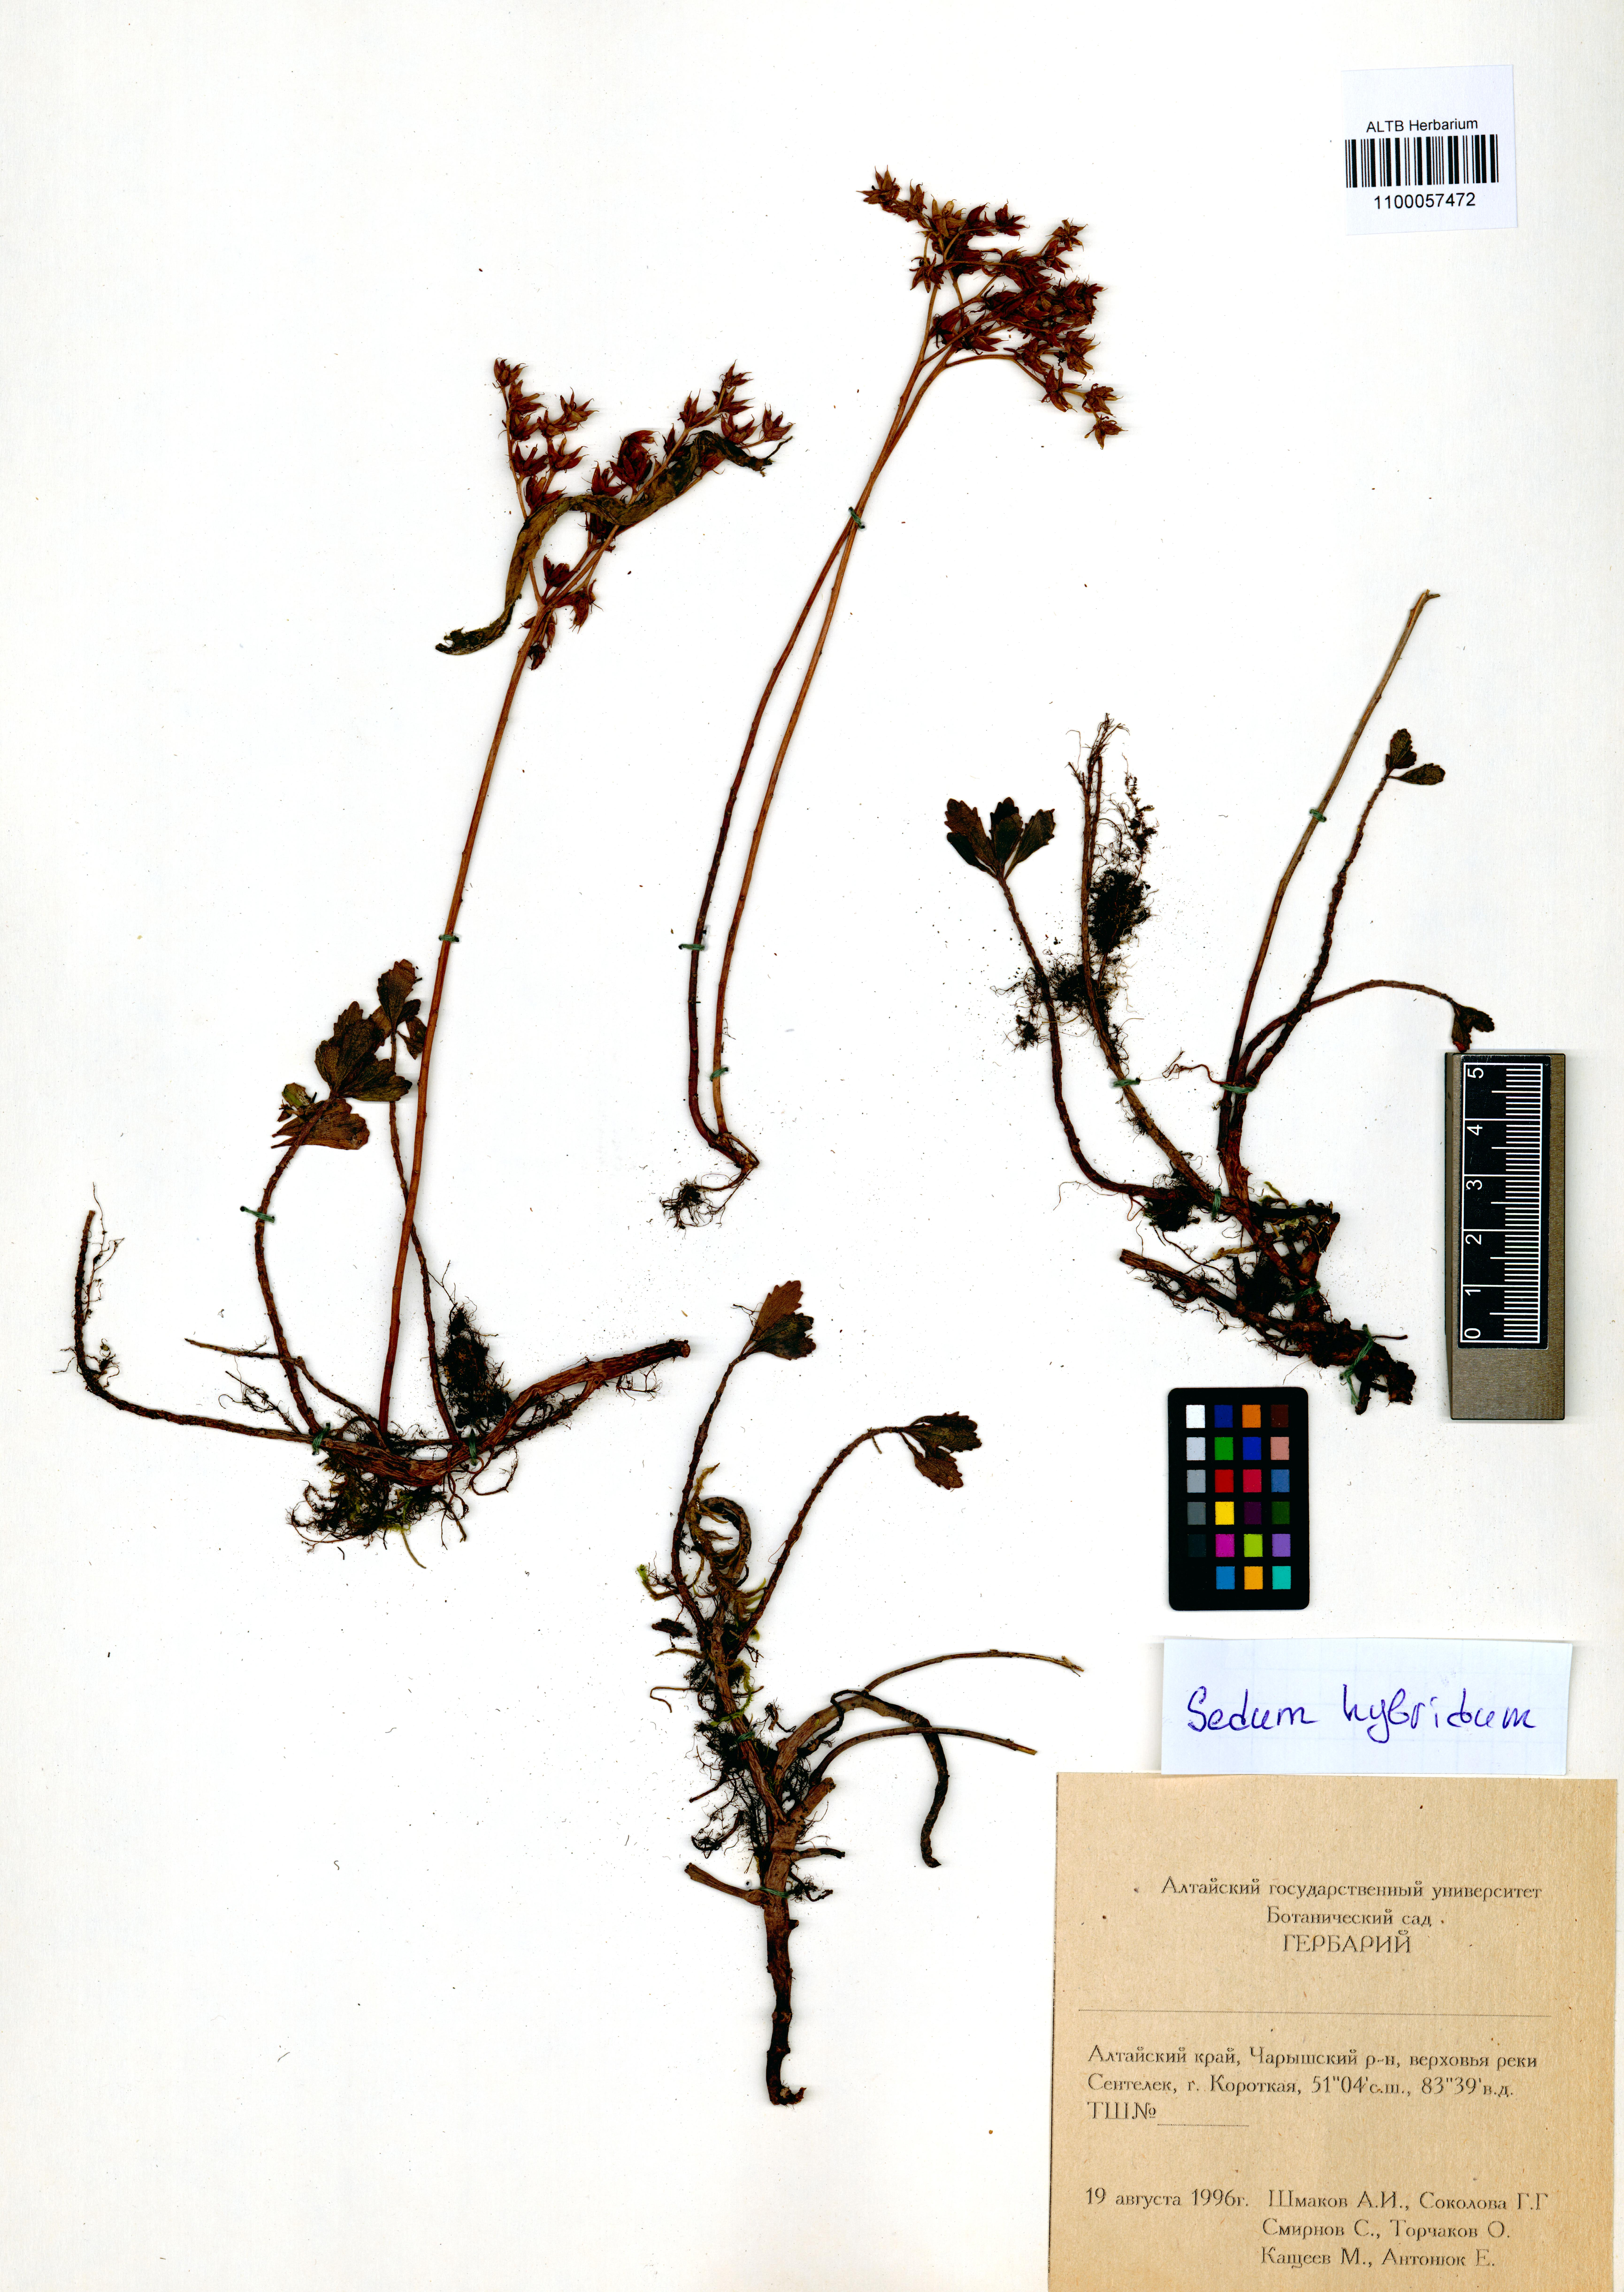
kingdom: Plantae
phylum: Tracheophyta
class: Magnoliopsida
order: Saxifragales
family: Crassulaceae
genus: Phedimus
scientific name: Phedimus hybridus
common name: Hybrid stonecrop
